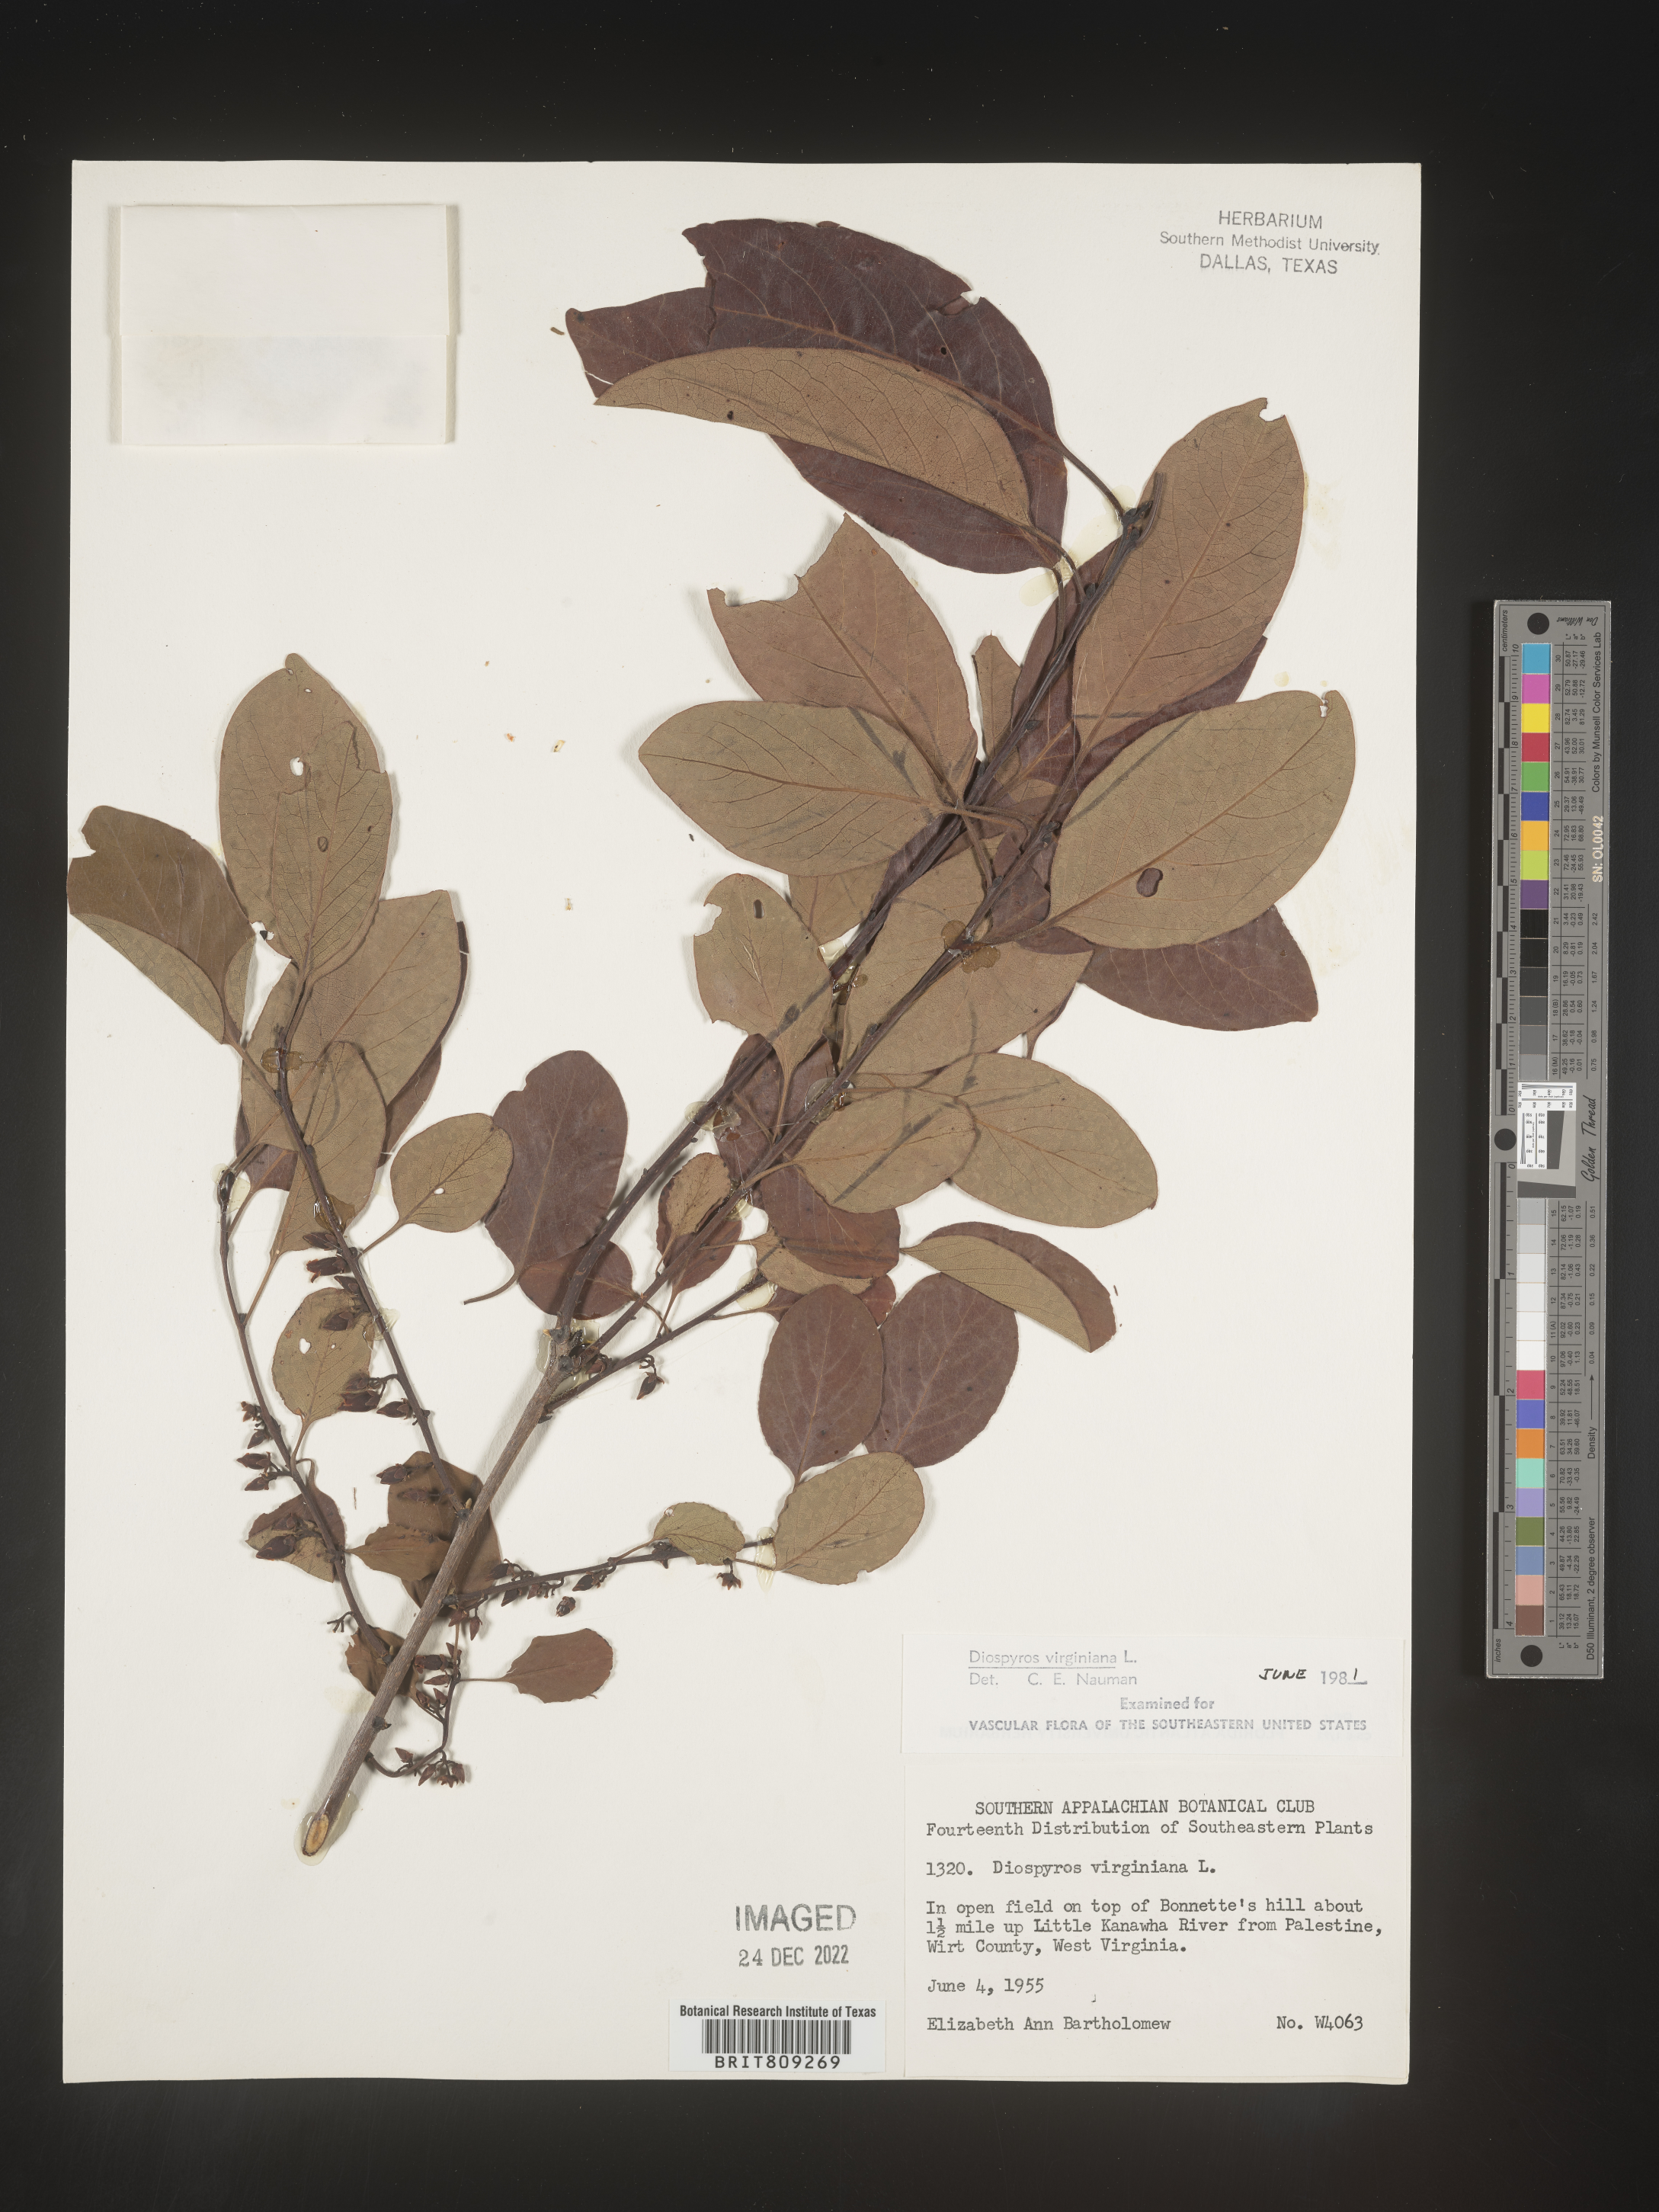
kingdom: Plantae
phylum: Tracheophyta
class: Magnoliopsida
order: Ericales
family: Ebenaceae
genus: Diospyros
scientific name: Diospyros virginiana
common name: Persimmon
